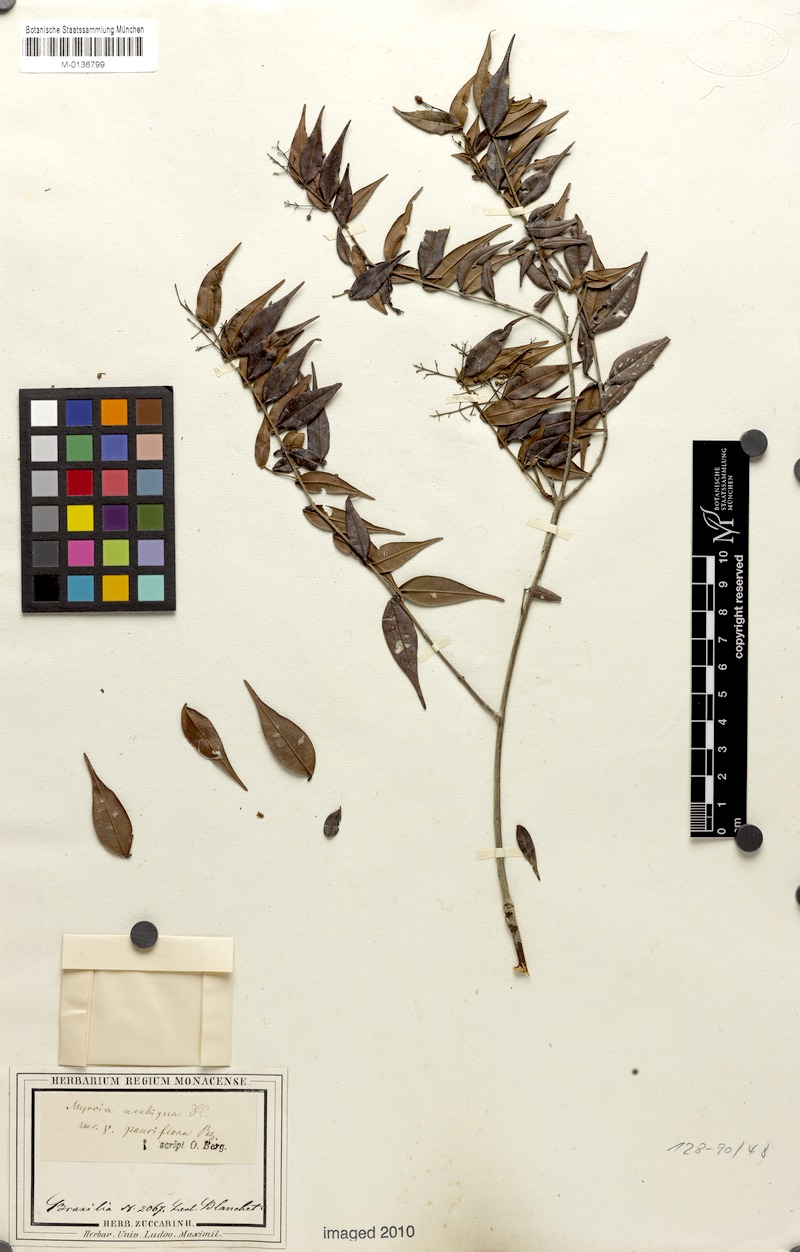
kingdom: Plantae
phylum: Tracheophyta
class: Magnoliopsida
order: Myrtales
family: Myrtaceae
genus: Myrcia
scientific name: Myrcia sylvatica
